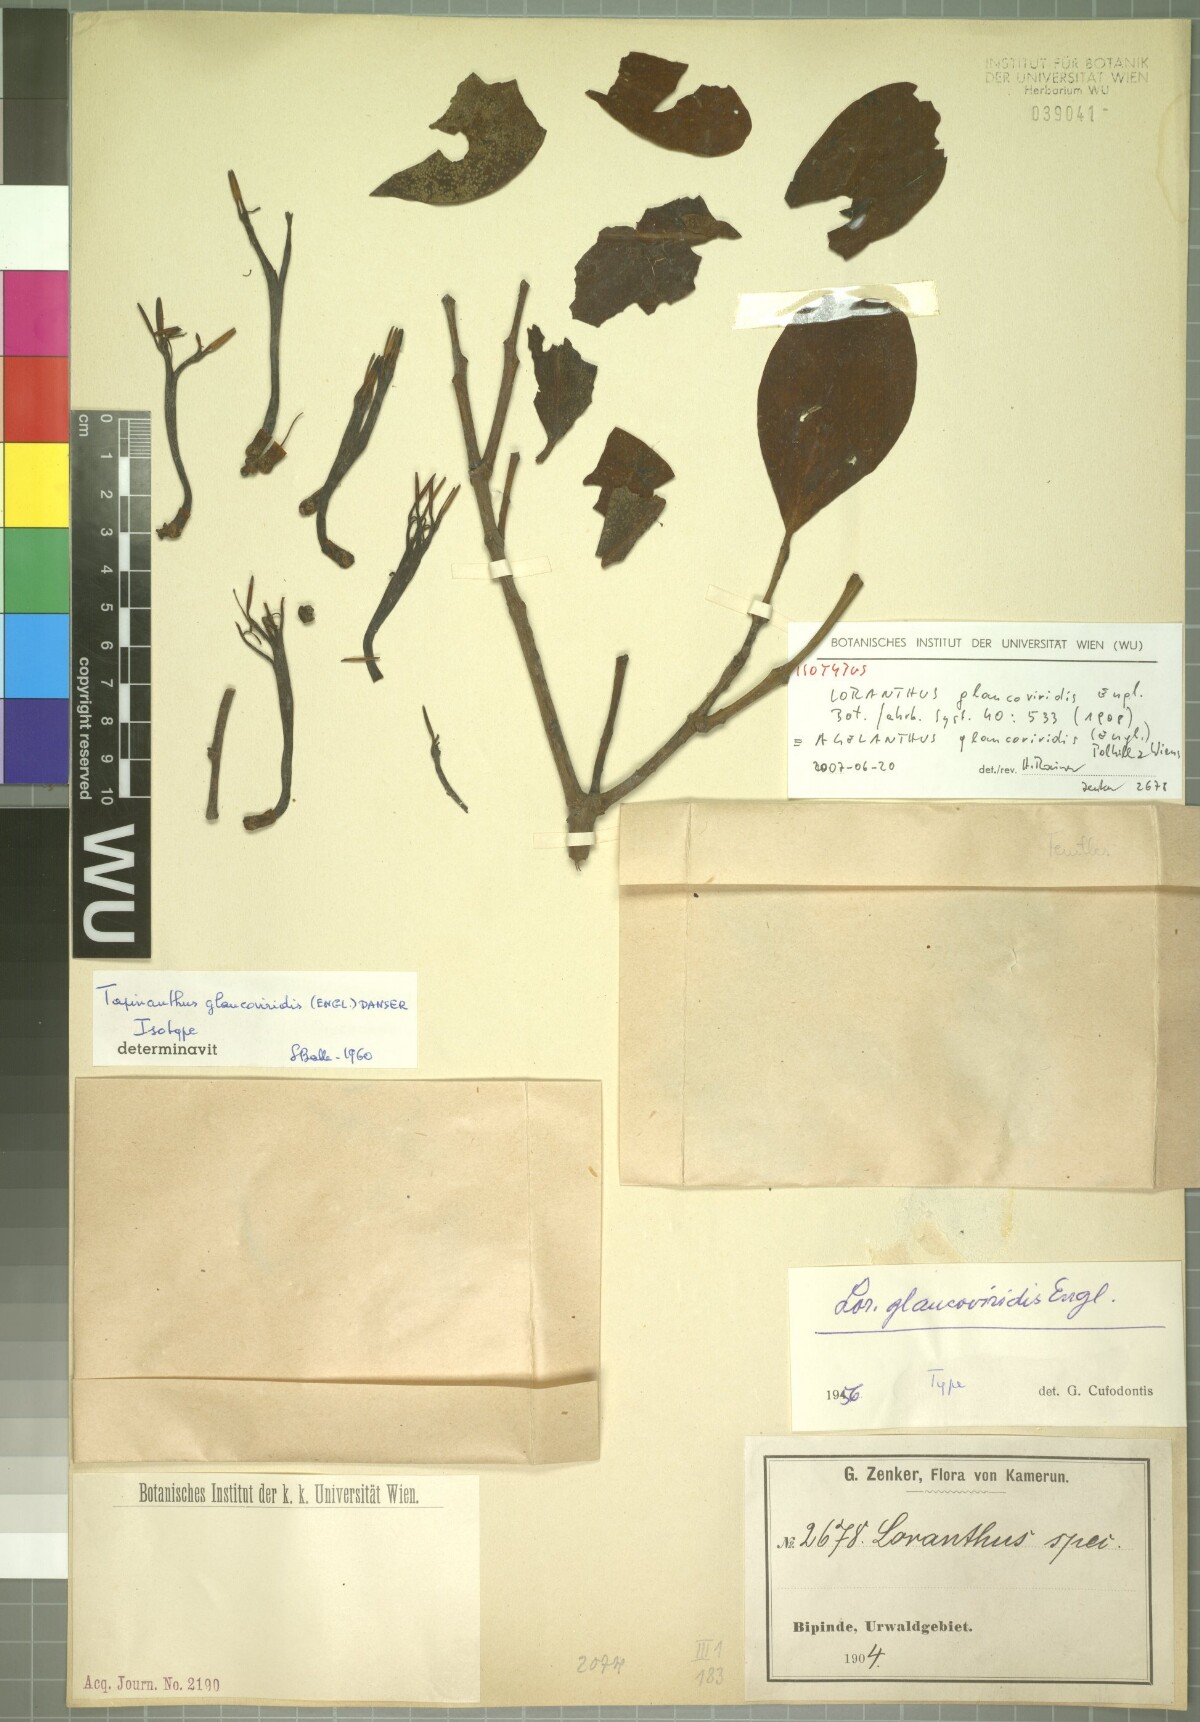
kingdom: Plantae
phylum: Tracheophyta
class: Magnoliopsida
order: Santalales
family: Loranthaceae
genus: Agelanthus
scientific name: Agelanthus glaucoviridis
